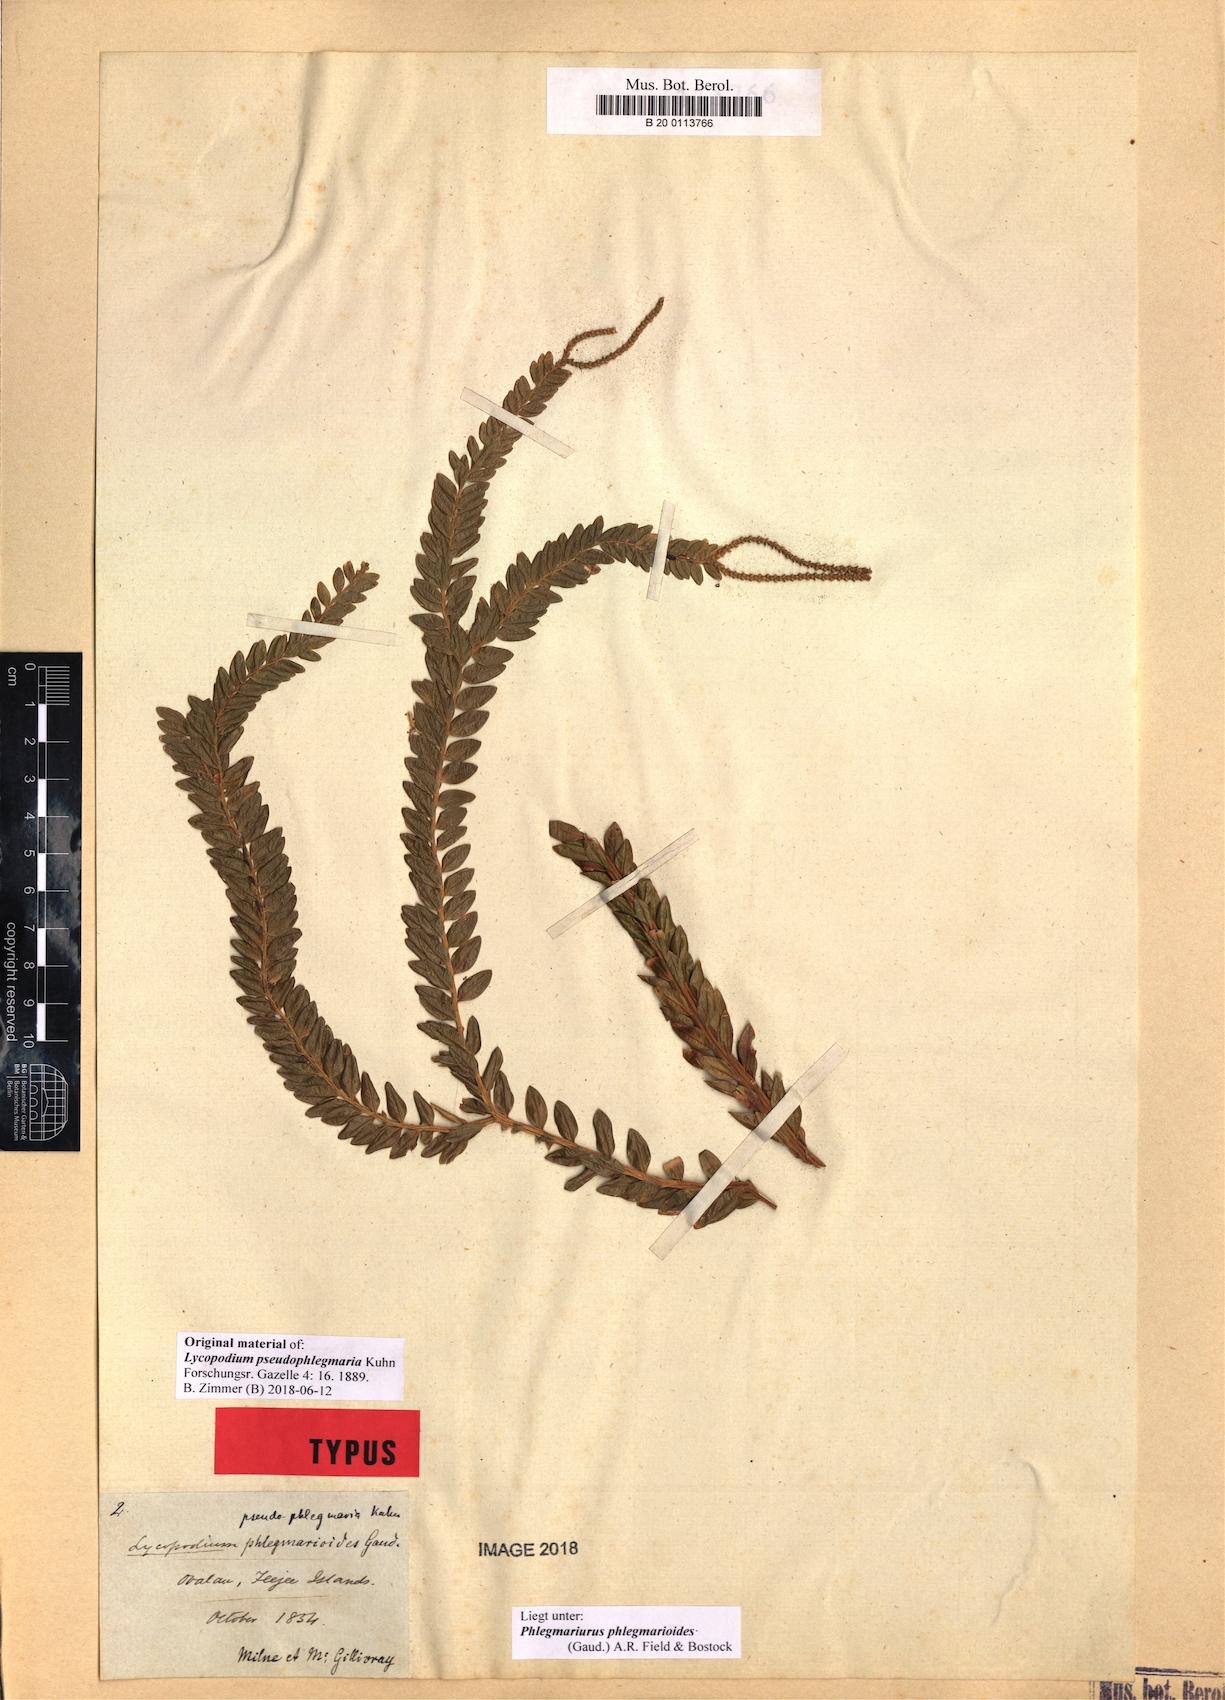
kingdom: Plantae
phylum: Tracheophyta
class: Lycopodiopsida
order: Lycopodiales
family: Lycopodiaceae
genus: Phlegmariurus
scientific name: Phlegmariurus phlegmarioides
